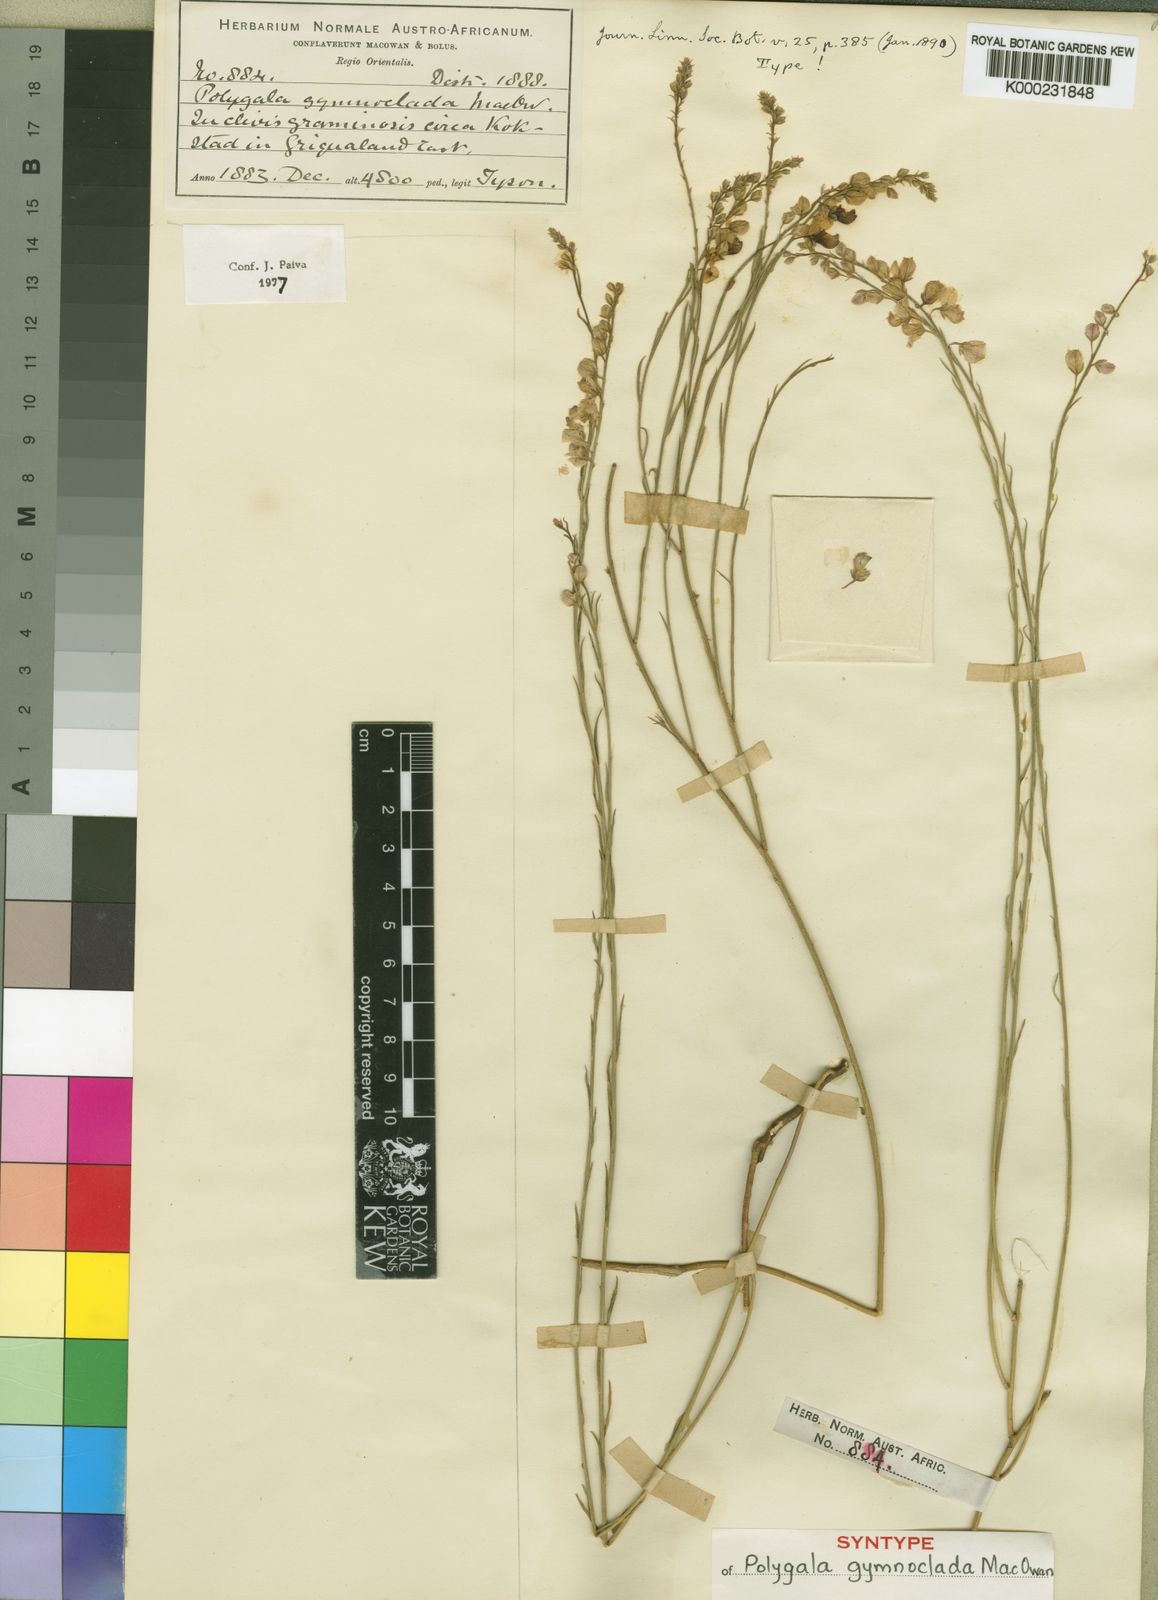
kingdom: Plantae
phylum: Tracheophyta
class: Magnoliopsida
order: Fabales
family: Polygalaceae
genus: Polygala
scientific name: Polygala gymnoclada
